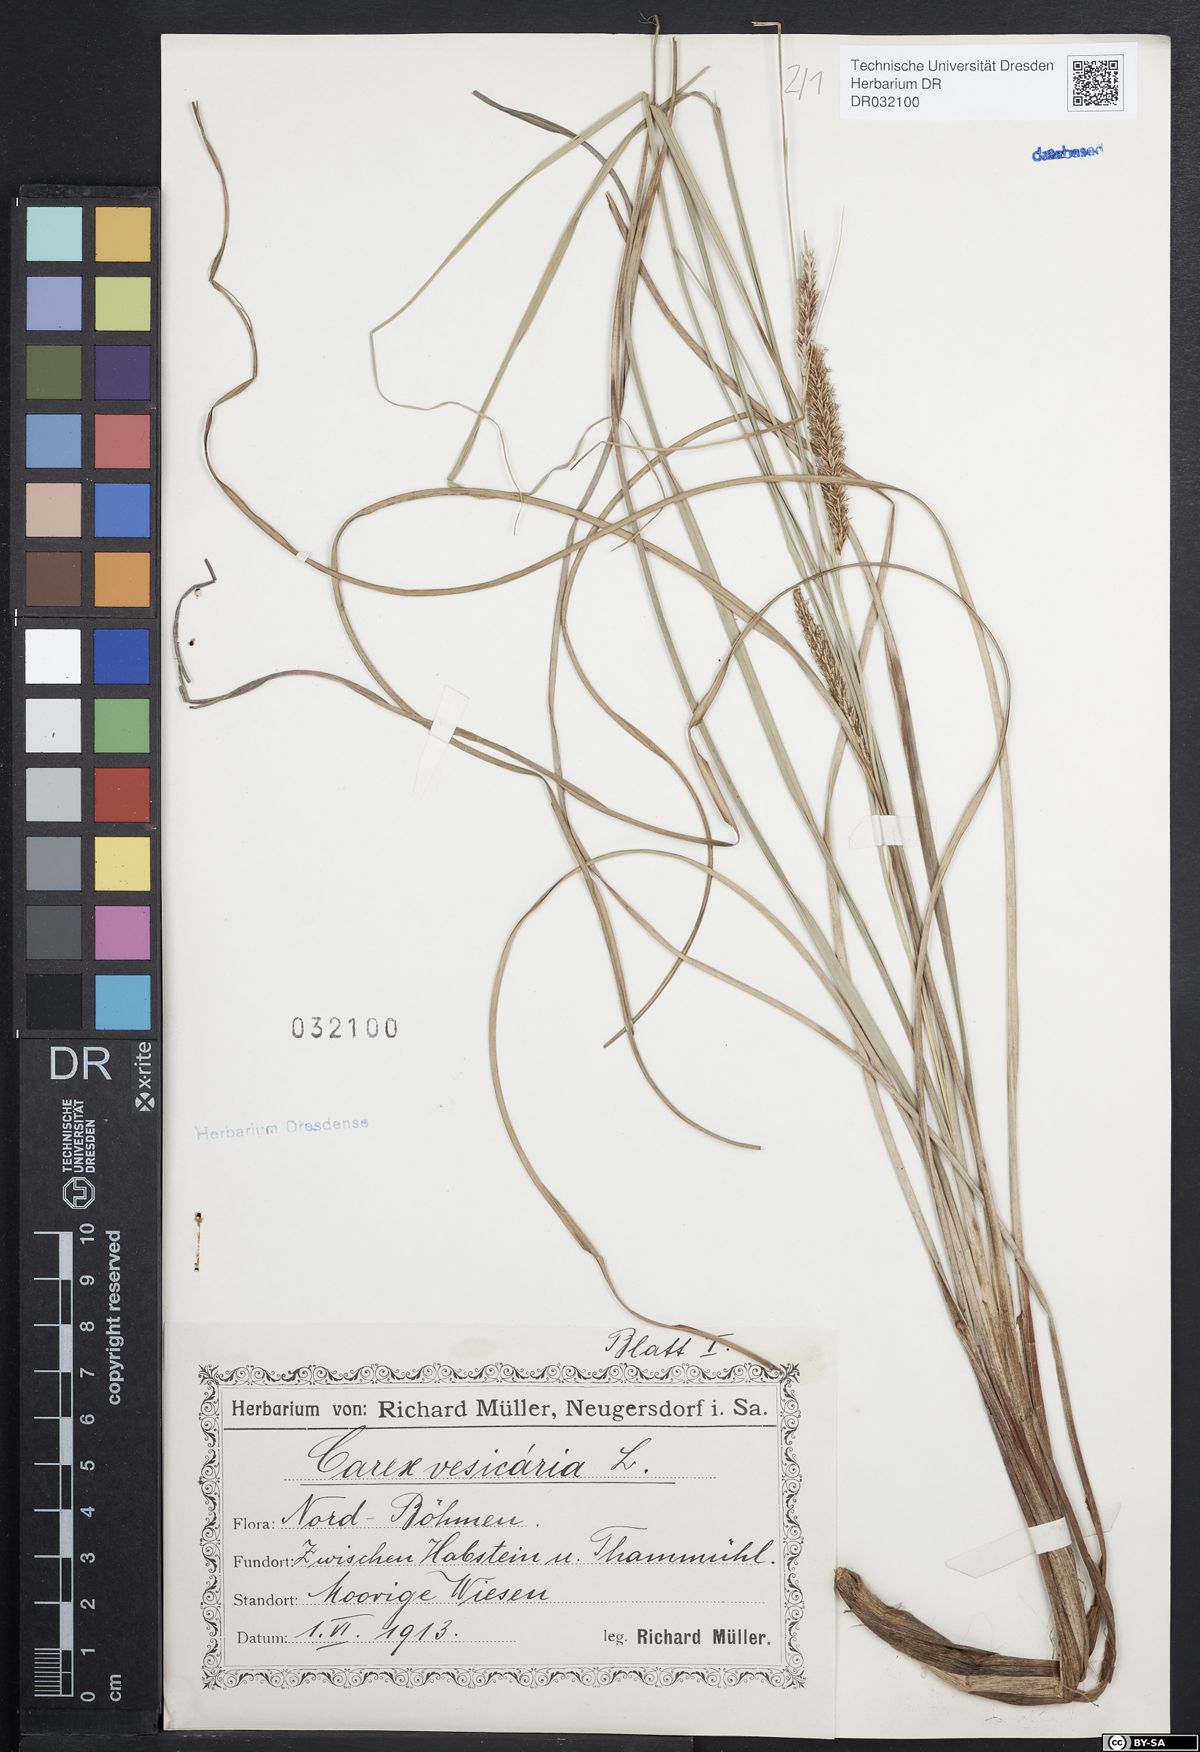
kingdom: Plantae
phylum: Tracheophyta
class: Liliopsida
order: Poales
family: Cyperaceae
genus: Carex
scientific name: Carex vesicaria
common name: Bladder-sedge
